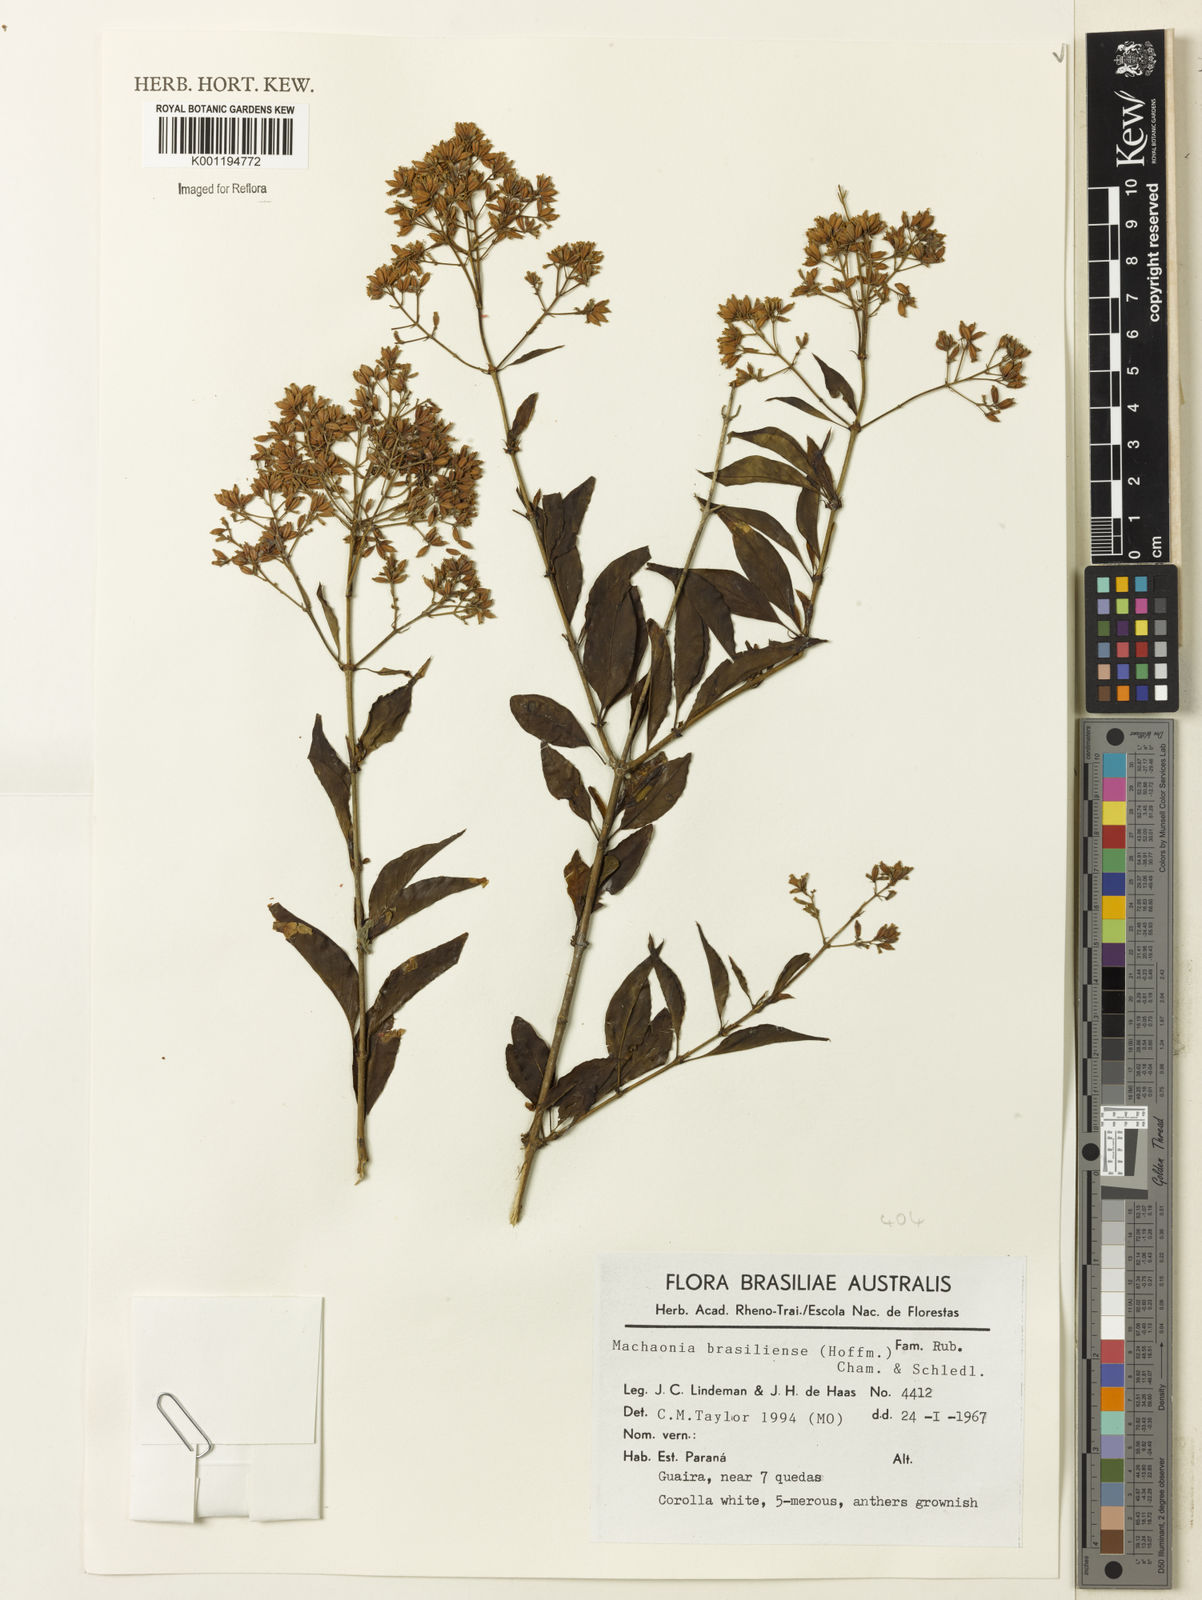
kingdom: Plantae
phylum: Tracheophyta
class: Magnoliopsida
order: Gentianales
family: Rubiaceae
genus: Machaonia
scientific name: Machaonia brasiliensis
